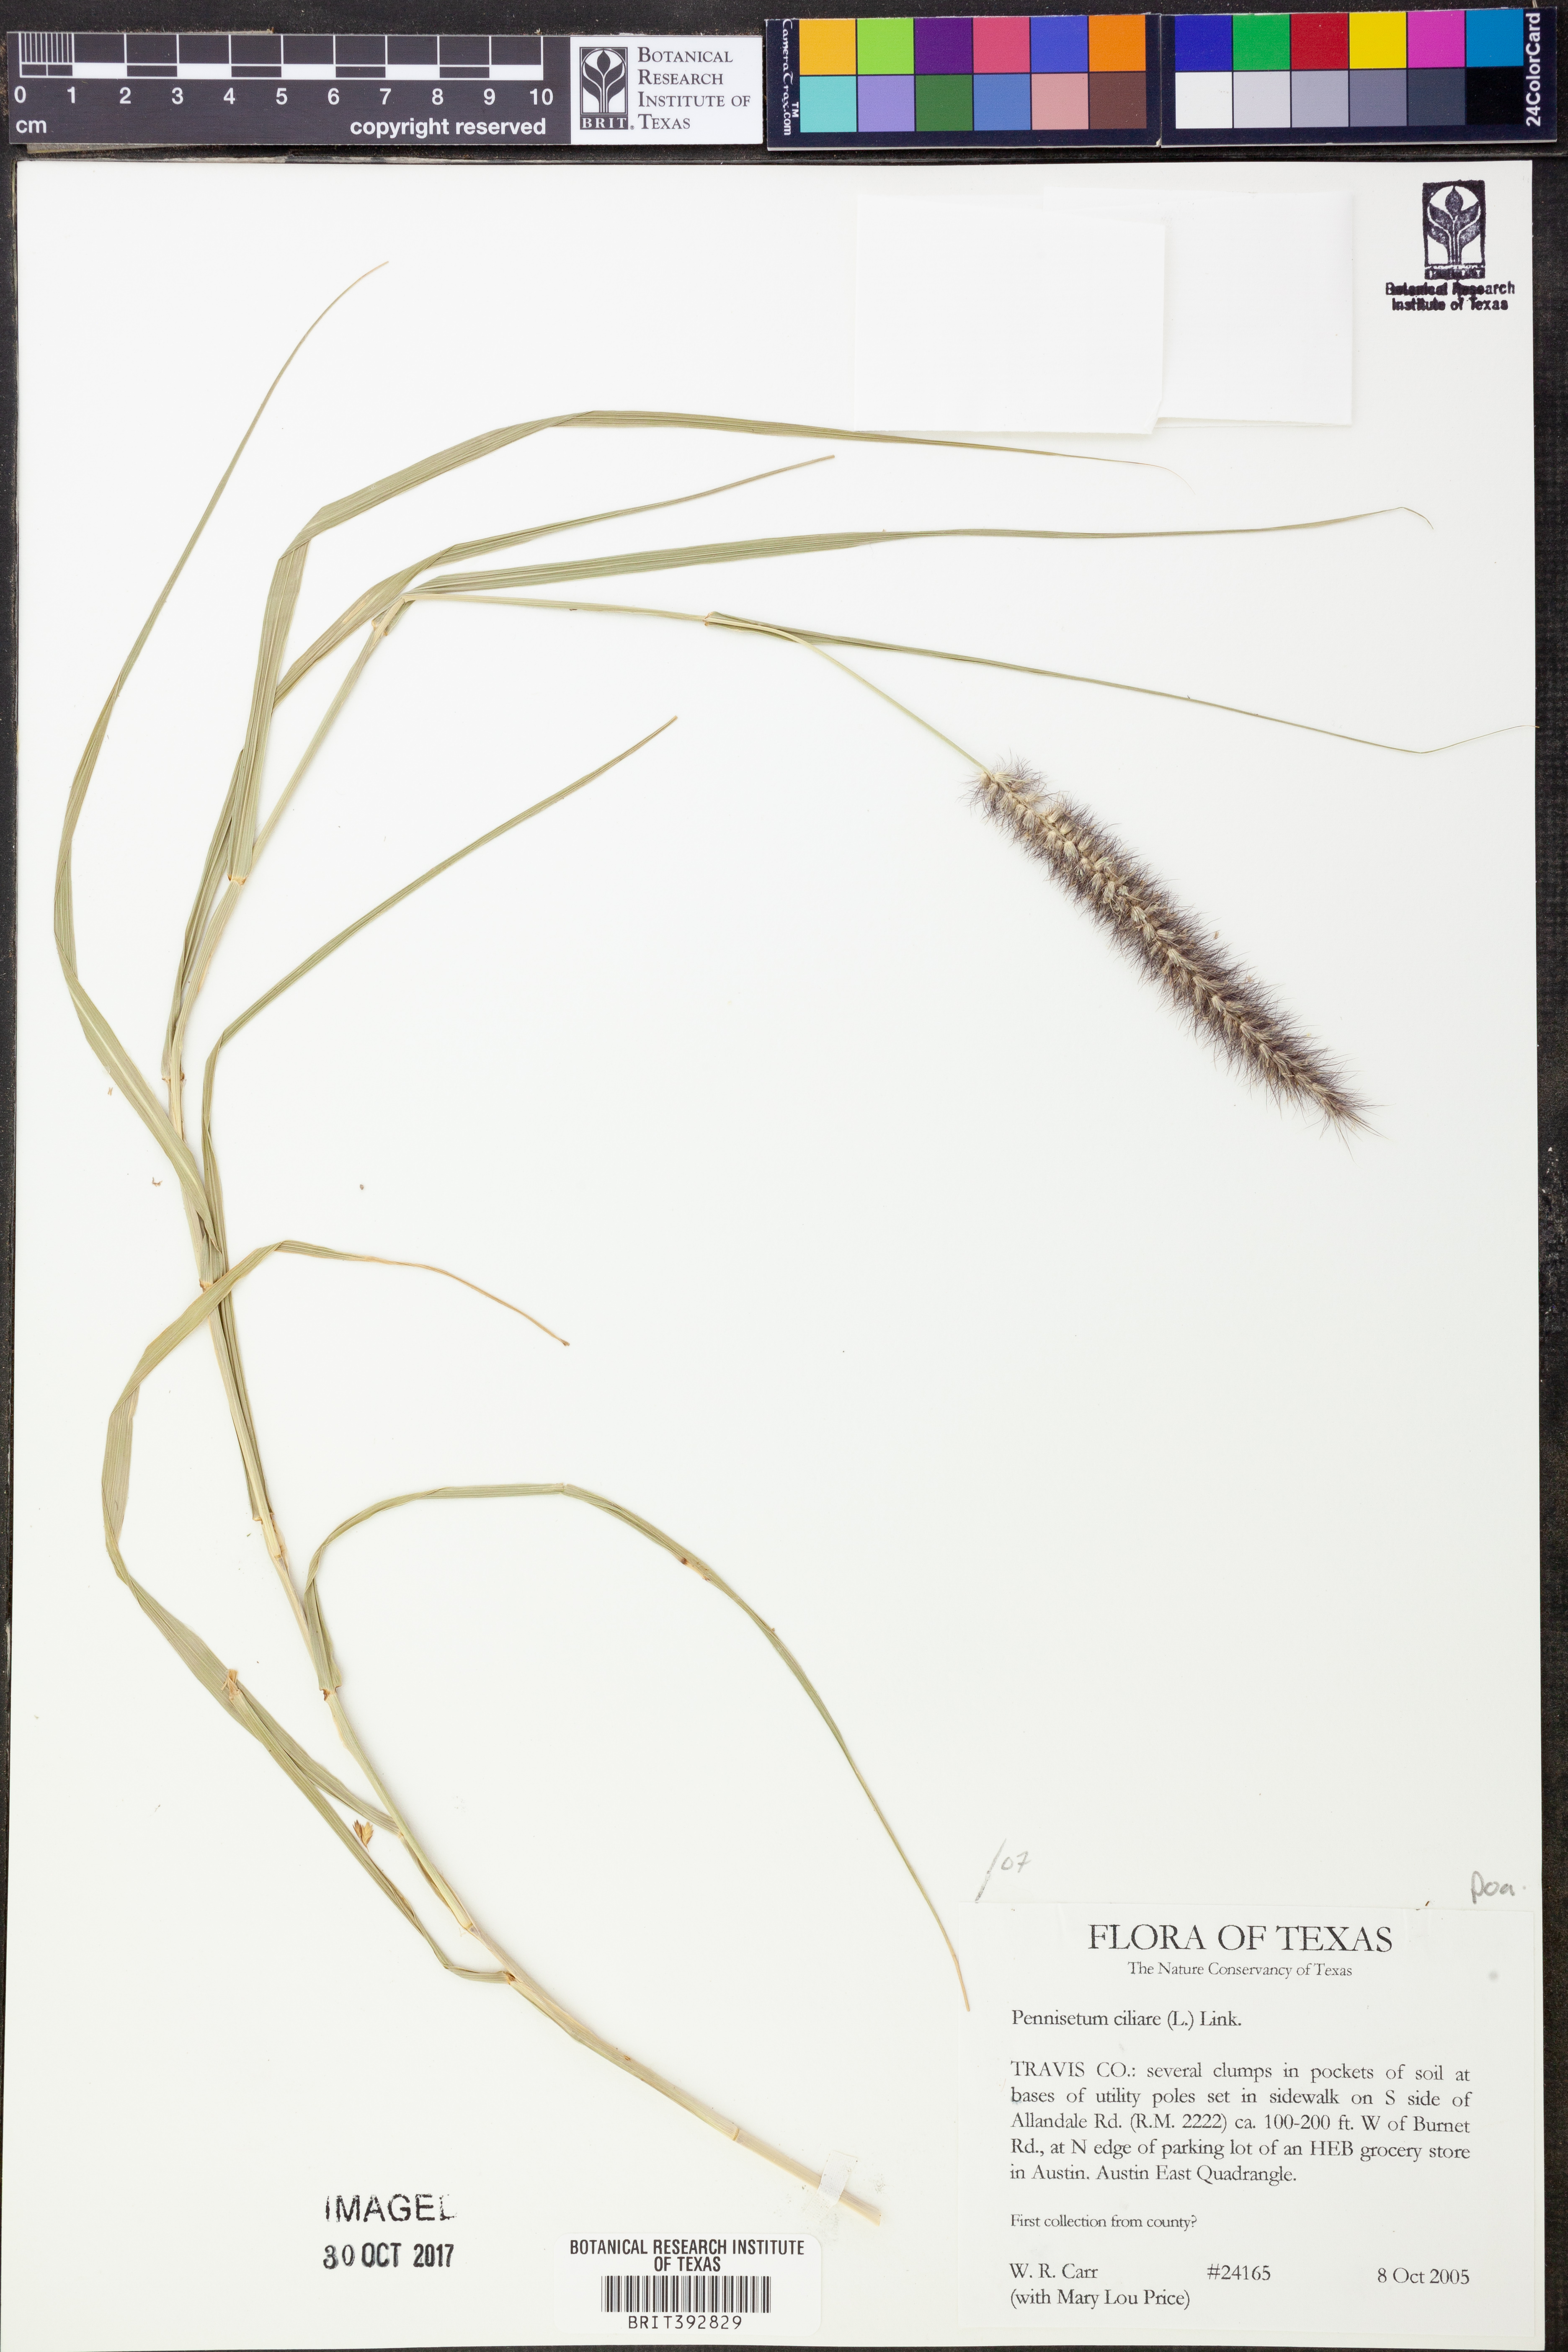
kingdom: Plantae
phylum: Tracheophyta
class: Liliopsida
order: Poales
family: Poaceae
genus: Cenchrus
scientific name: Cenchrus ciliaris
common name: Buffelgrass
